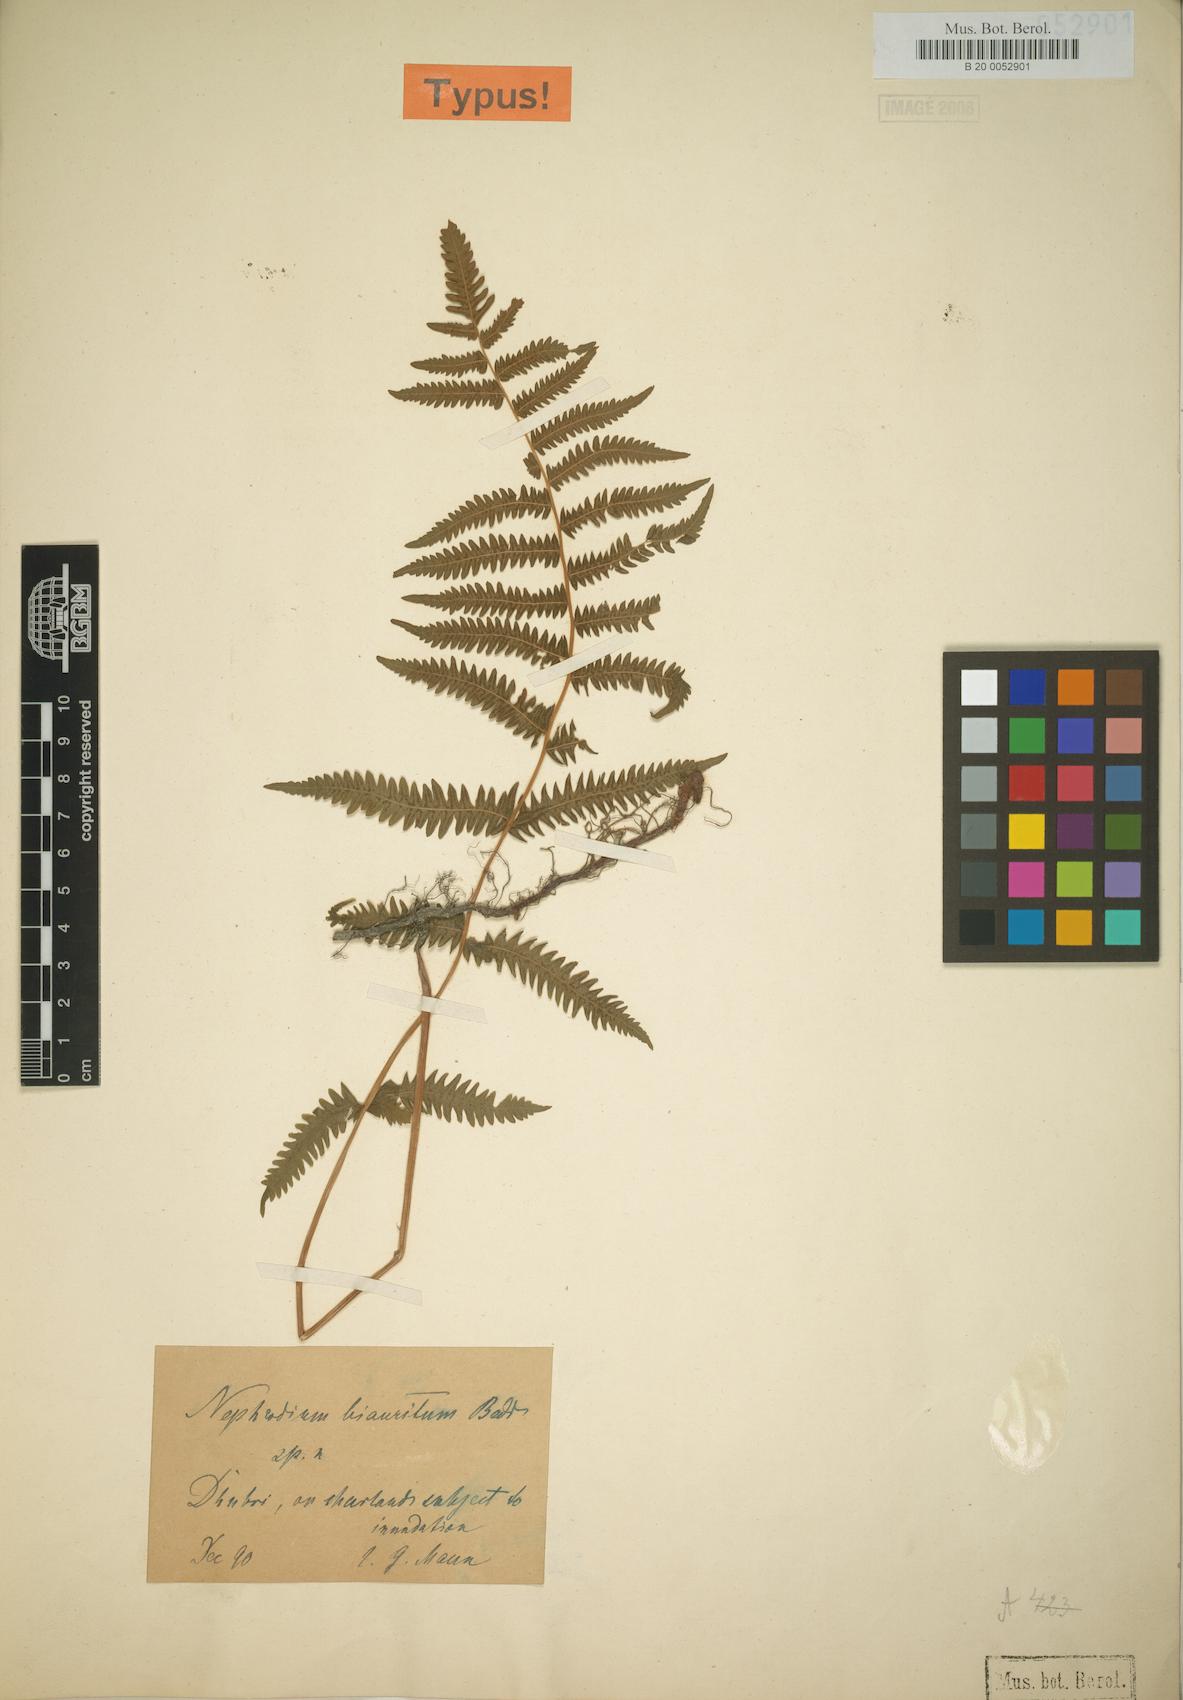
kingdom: Plantae
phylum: Tracheophyta
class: Polypodiopsida
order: Polypodiales
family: Thelypteridaceae
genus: Christella
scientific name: Christella lebeufii
